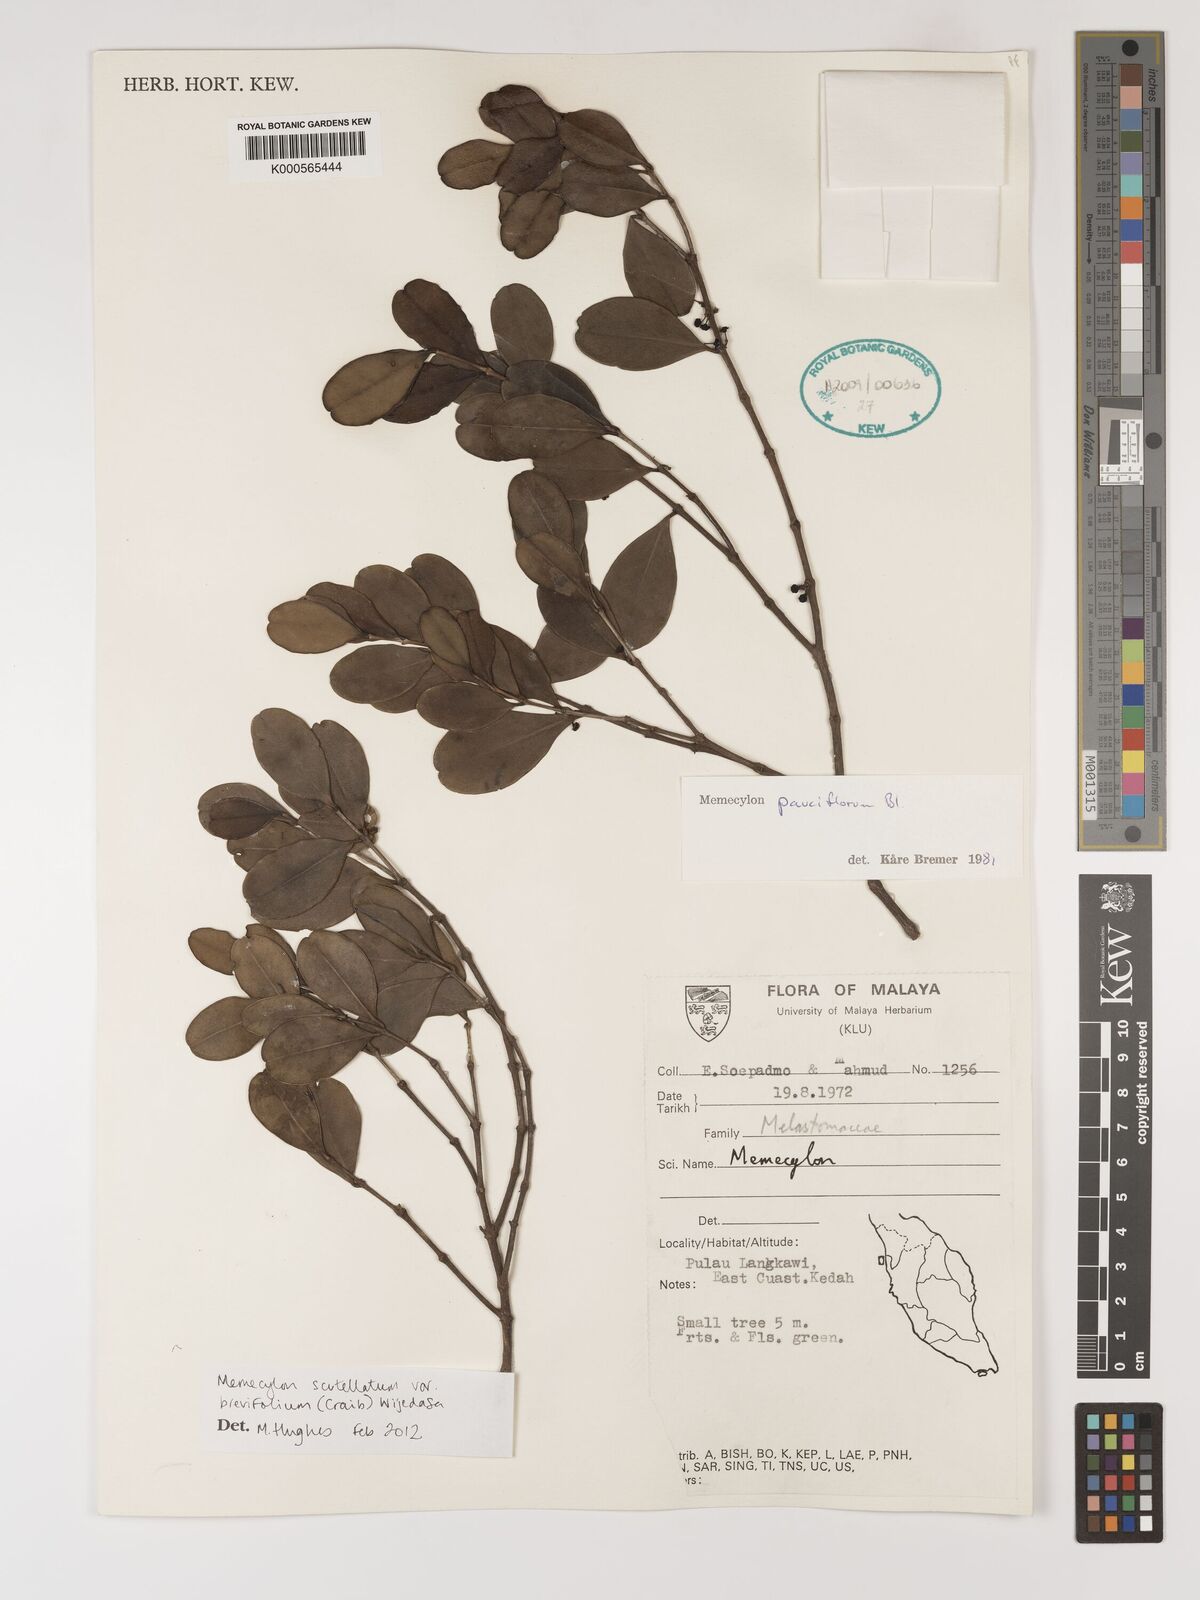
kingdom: Plantae
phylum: Tracheophyta
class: Magnoliopsida
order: Myrtales
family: Melastomataceae
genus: Memecylon
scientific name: Memecylon scutellatum
